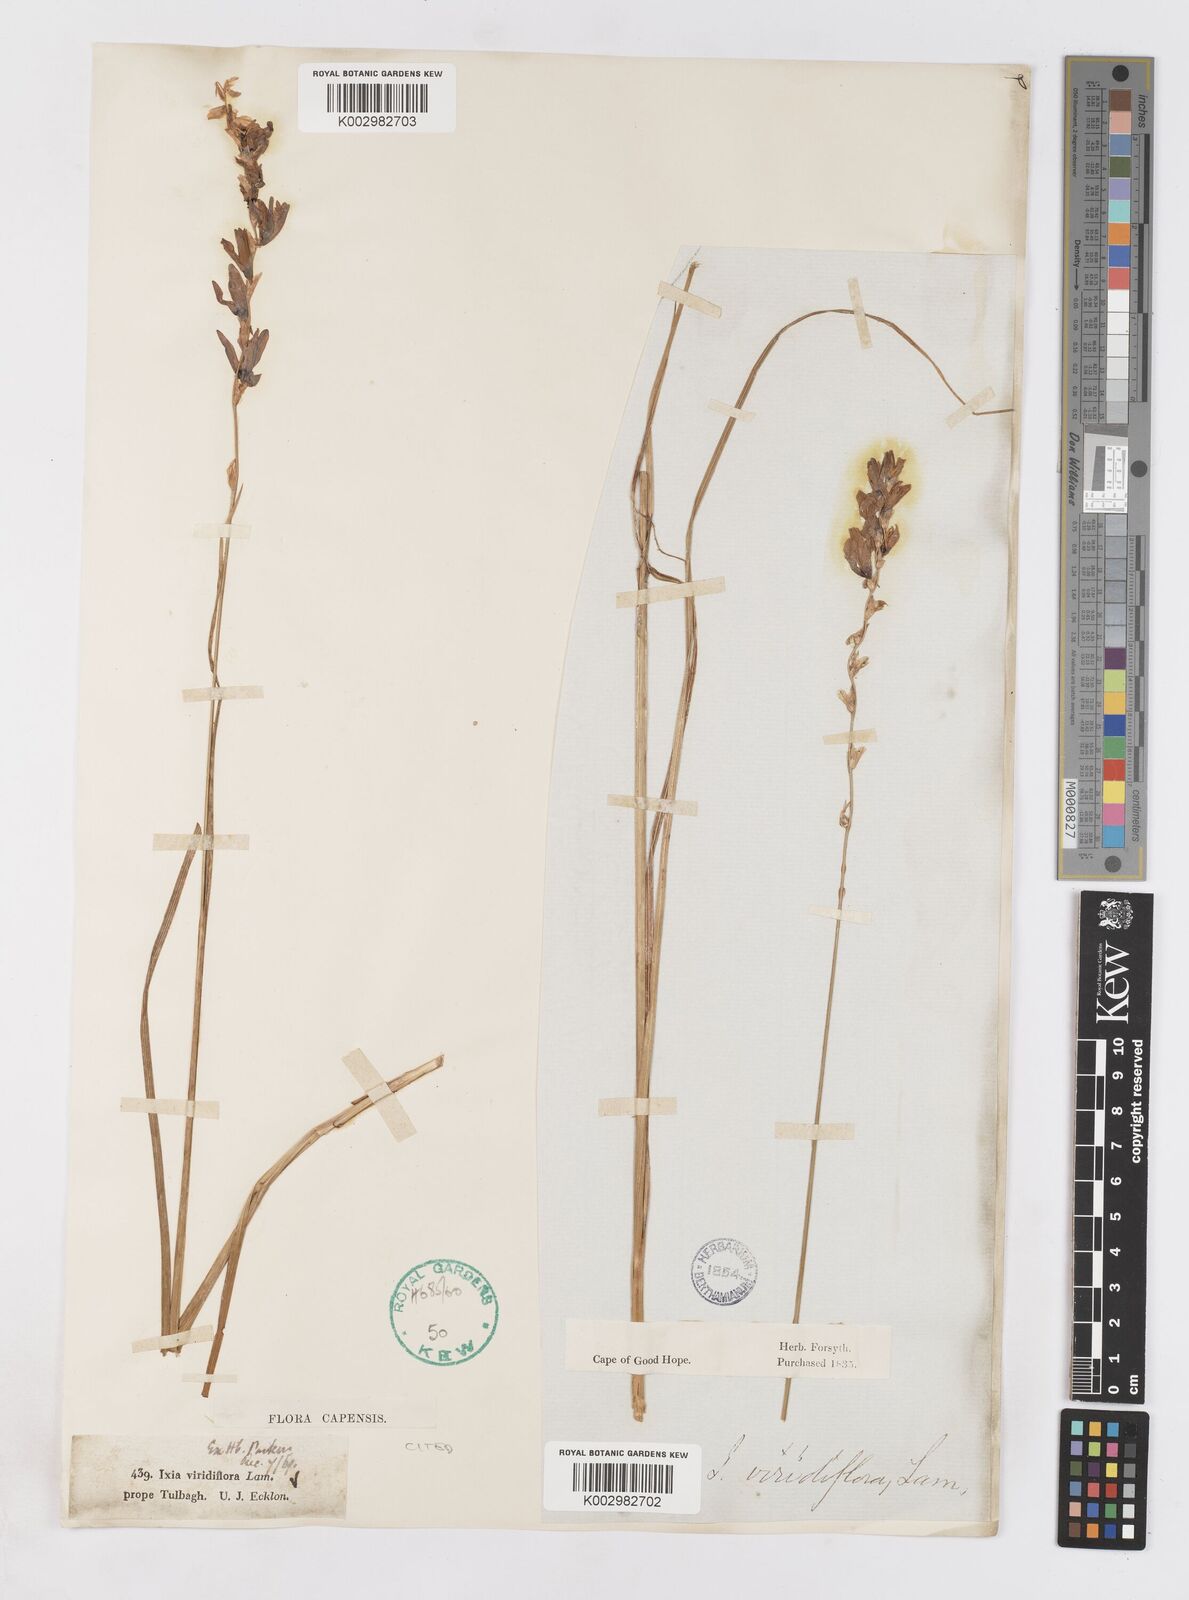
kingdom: Plantae
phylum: Tracheophyta
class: Liliopsida
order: Asparagales
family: Iridaceae
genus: Ixia
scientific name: Ixia viridiflora
